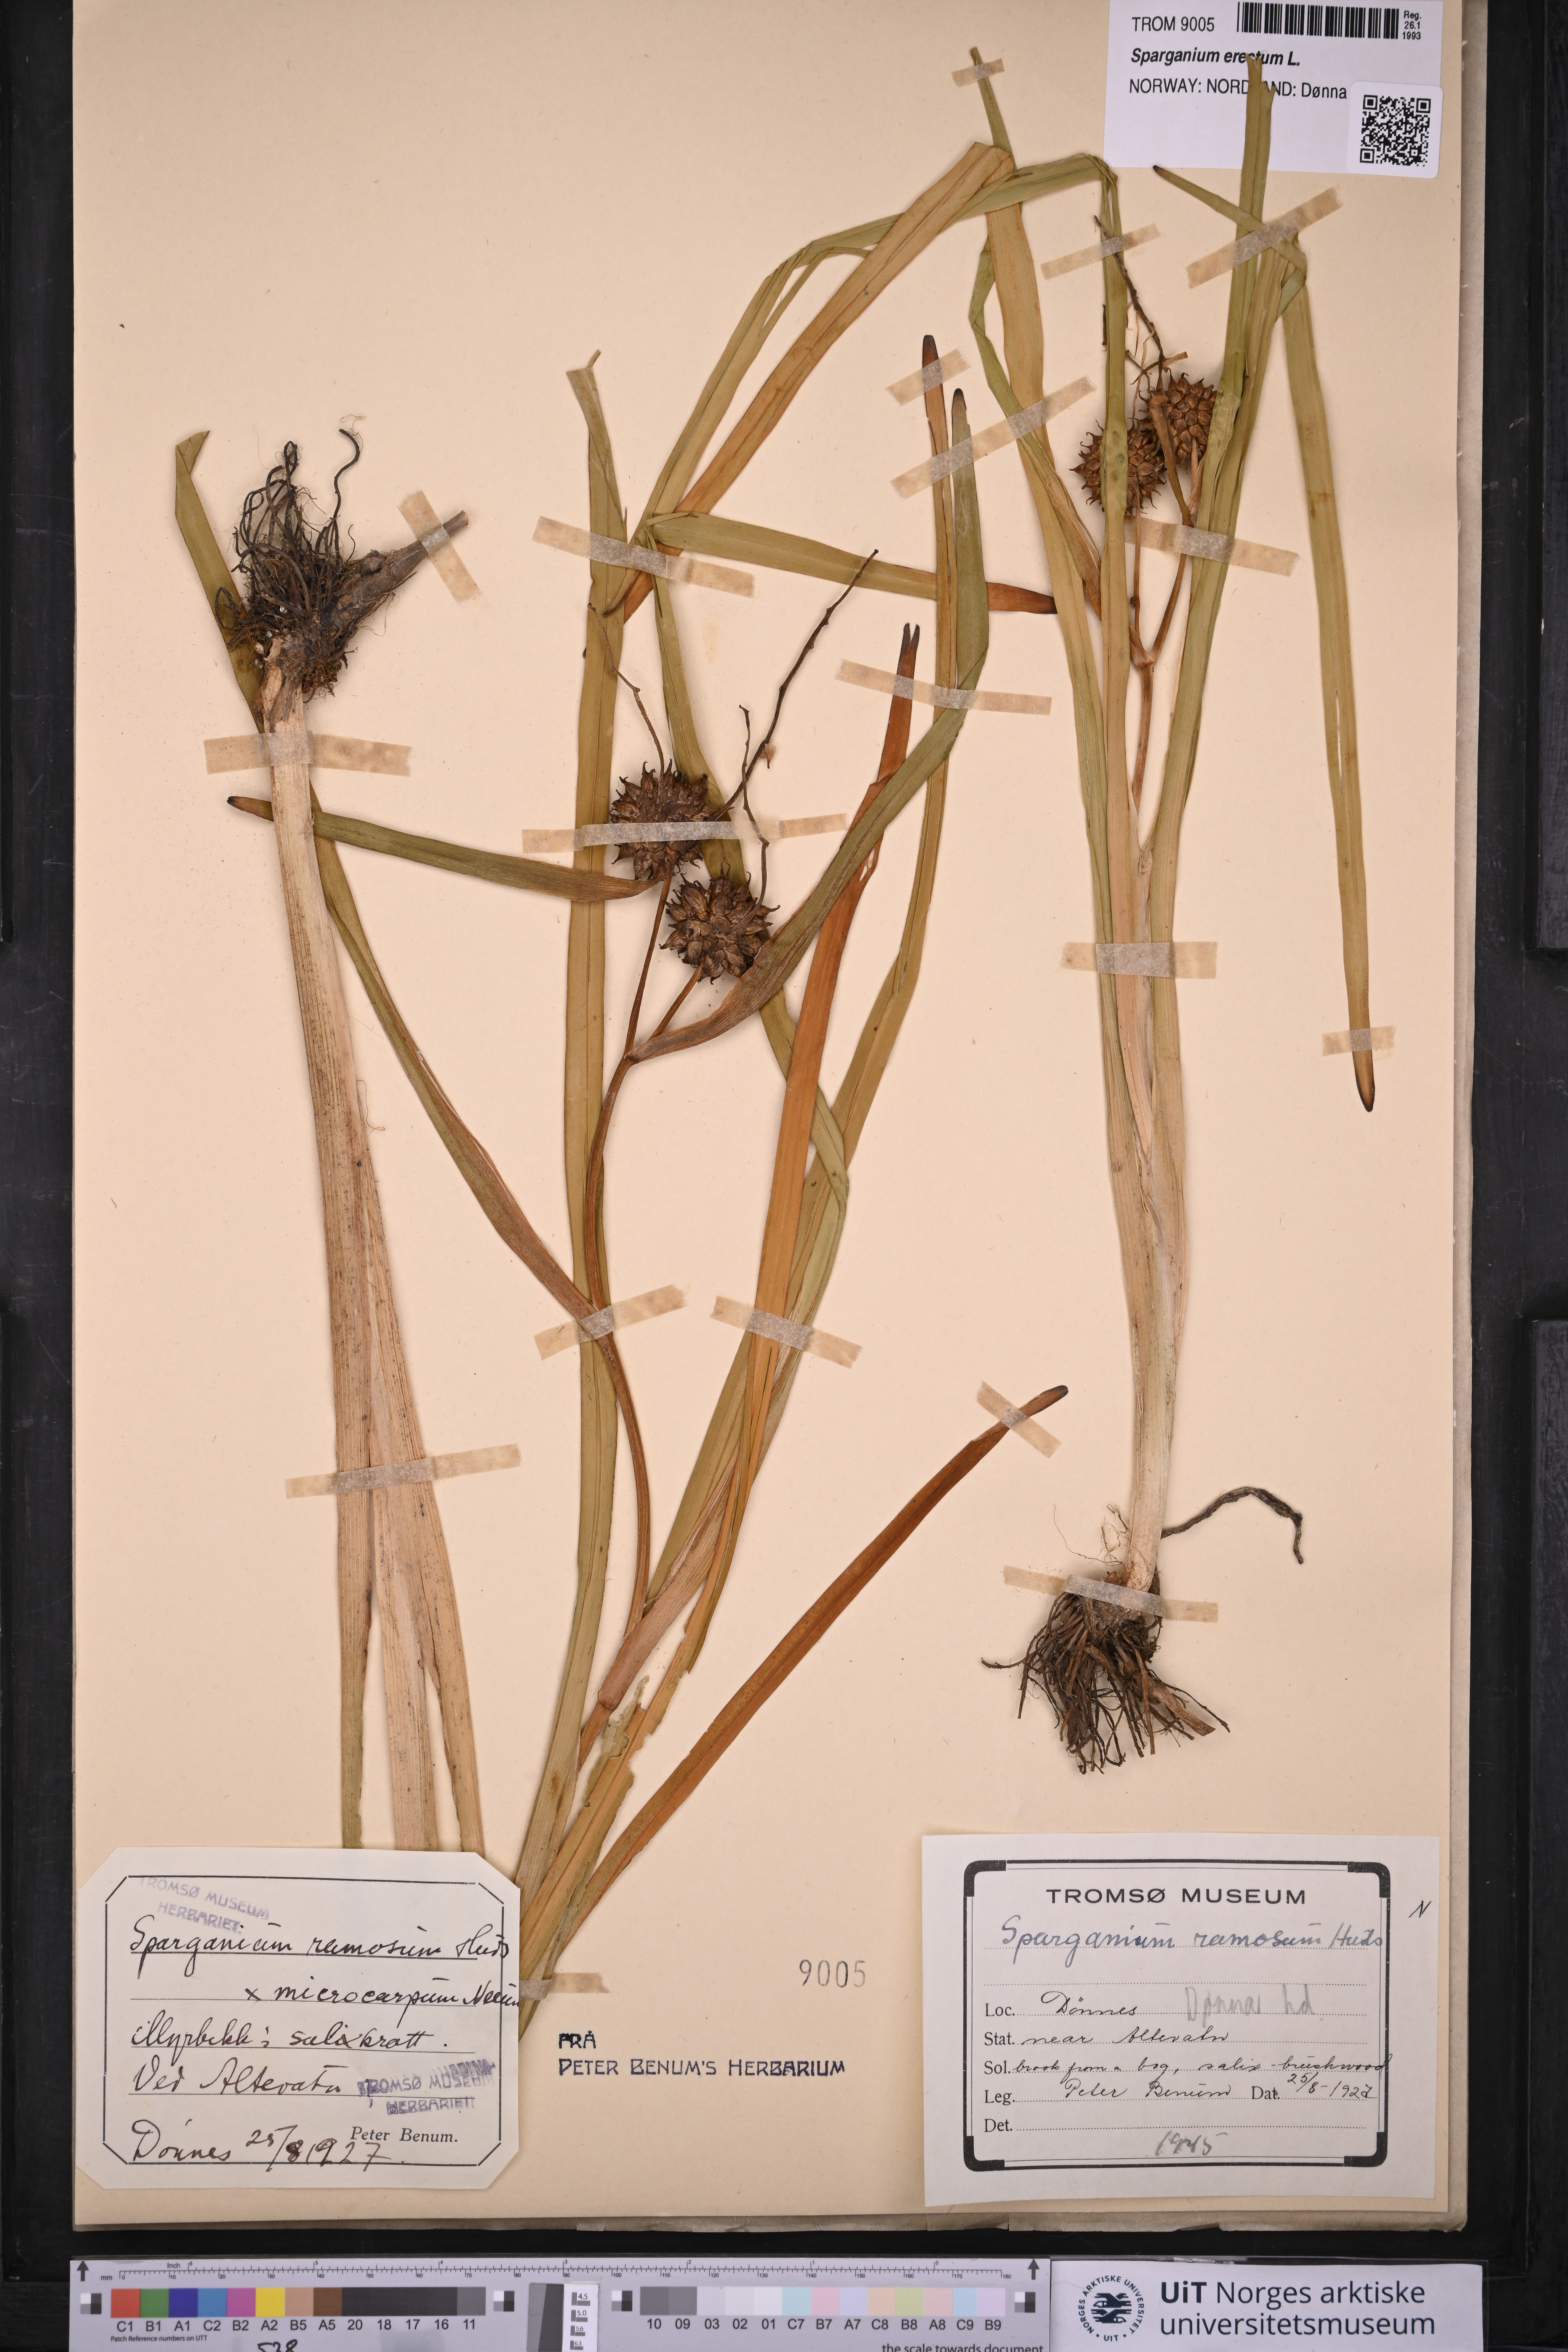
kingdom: Plantae
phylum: Tracheophyta
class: Liliopsida
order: Poales
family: Typhaceae
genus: Sparganium
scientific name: Sparganium erectum
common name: Branched bur-reed
